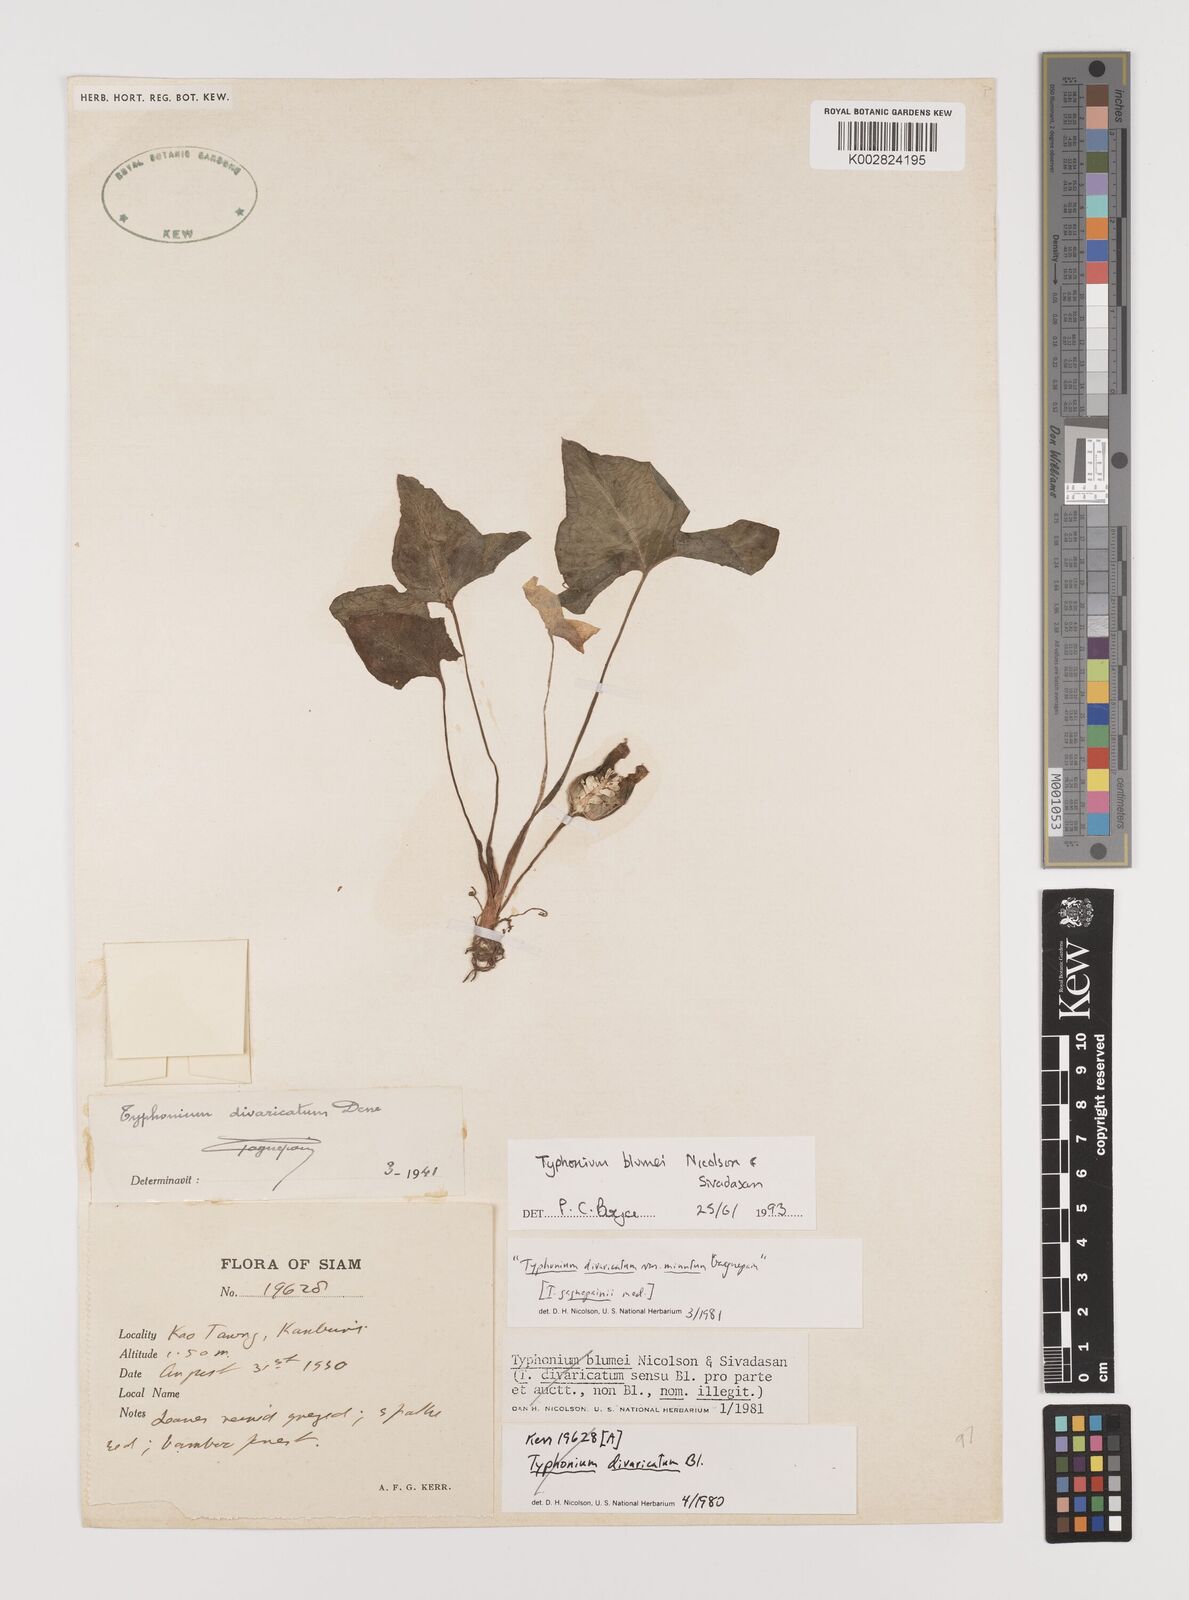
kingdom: Plantae
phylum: Tracheophyta
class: Liliopsida
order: Alismatales
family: Araceae
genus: Typhonium
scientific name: Typhonium blumei
